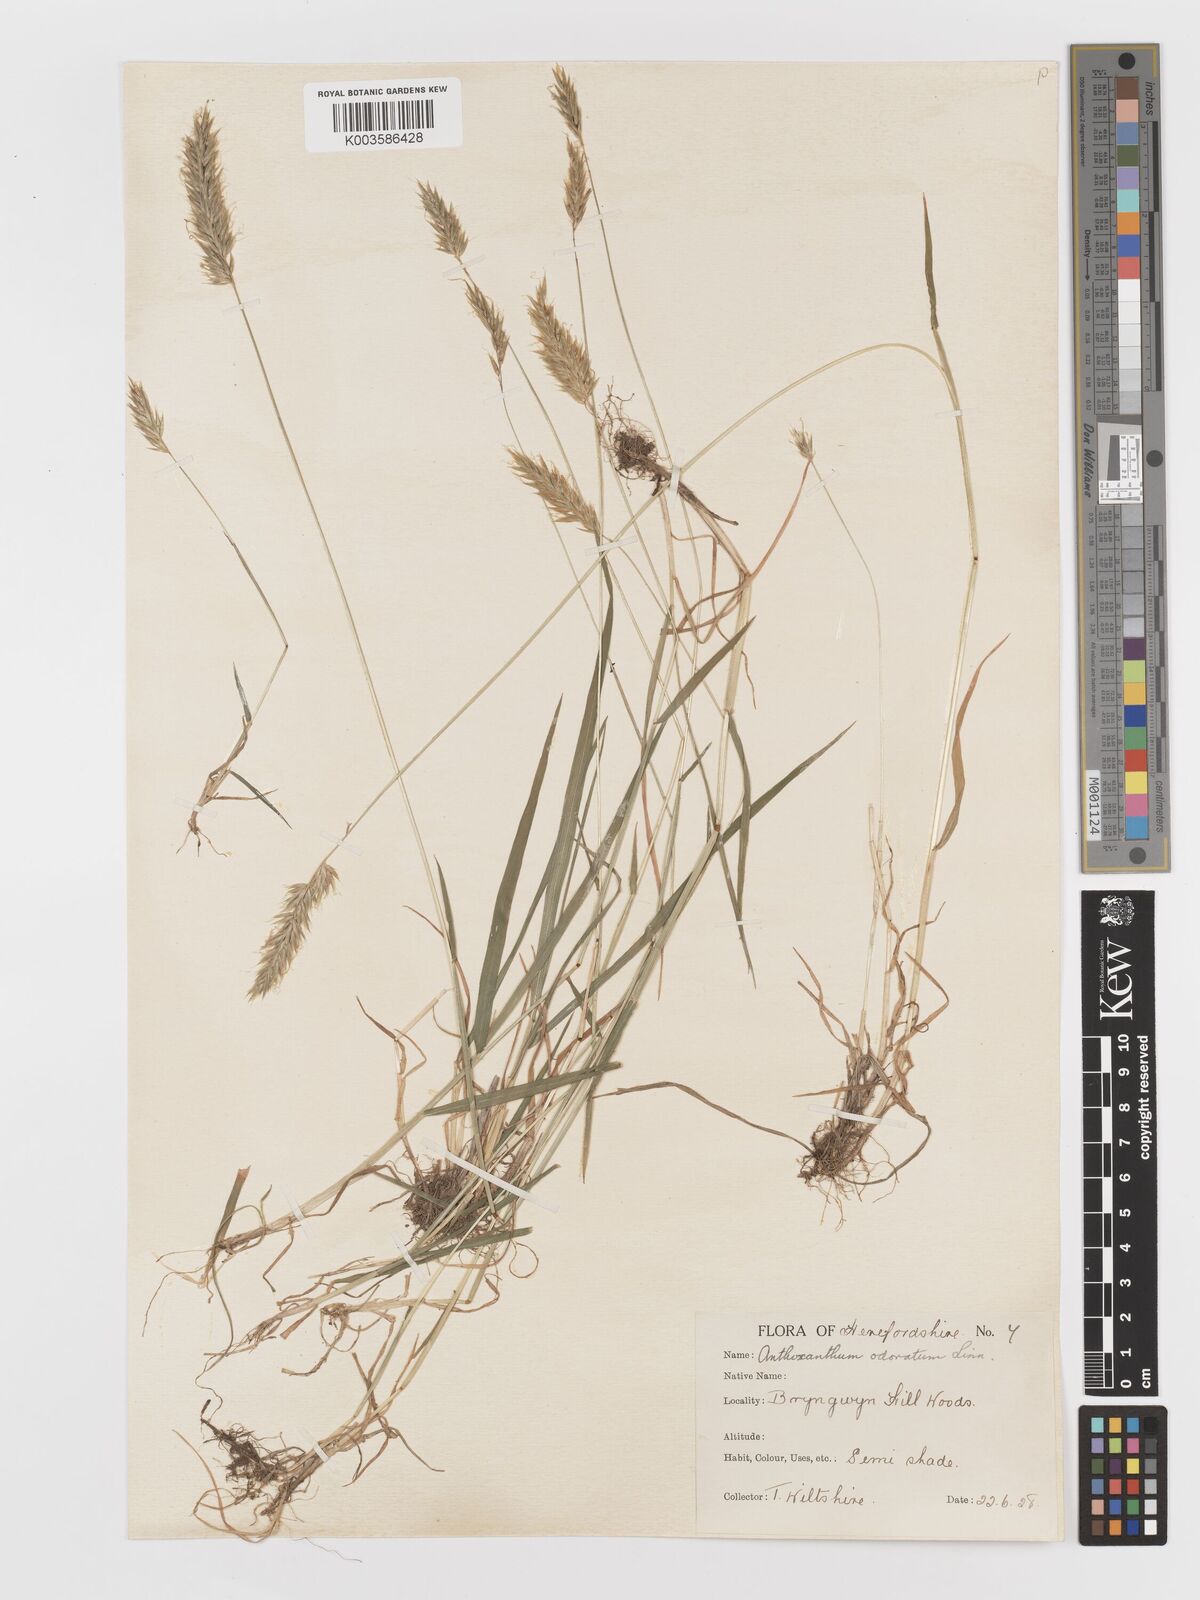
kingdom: Plantae
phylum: Tracheophyta
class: Liliopsida
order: Poales
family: Poaceae
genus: Anthoxanthum
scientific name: Anthoxanthum odoratum
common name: Sweet vernalgrass
